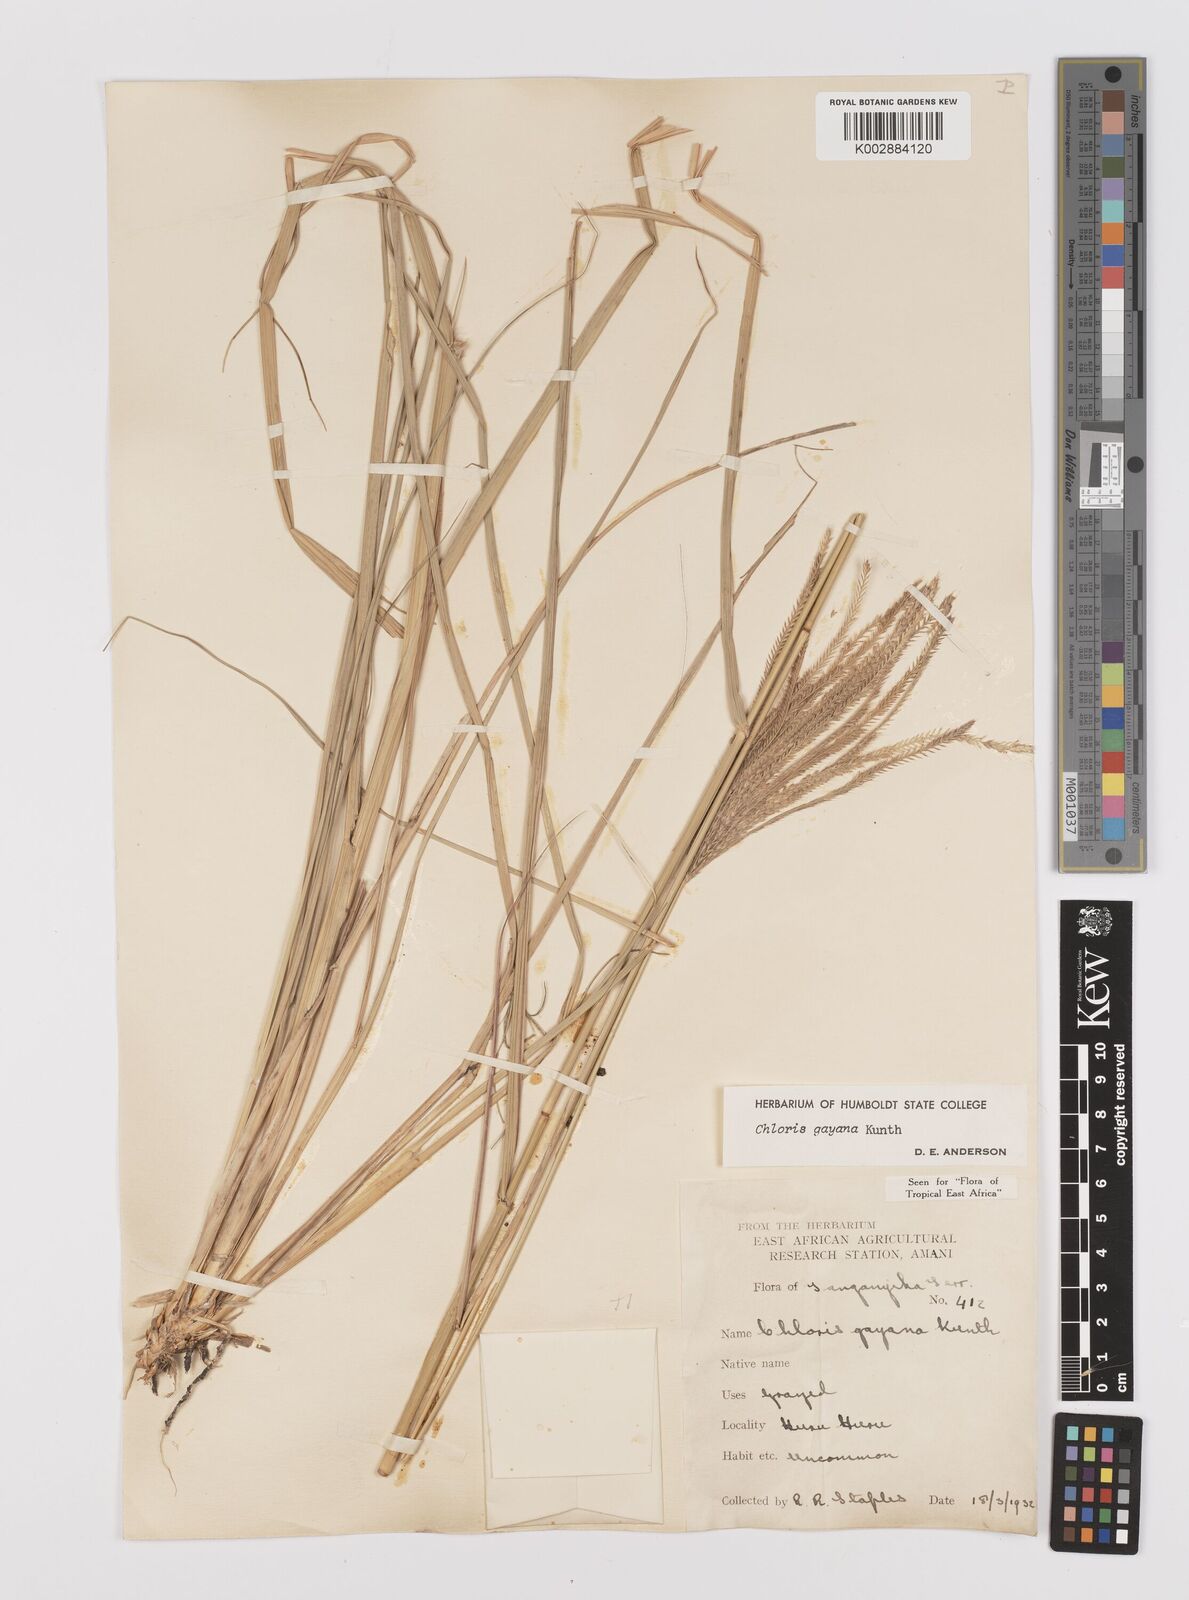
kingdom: Plantae
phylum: Tracheophyta
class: Liliopsida
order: Poales
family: Poaceae
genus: Chloris
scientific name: Chloris gayana
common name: Rhodes grass
